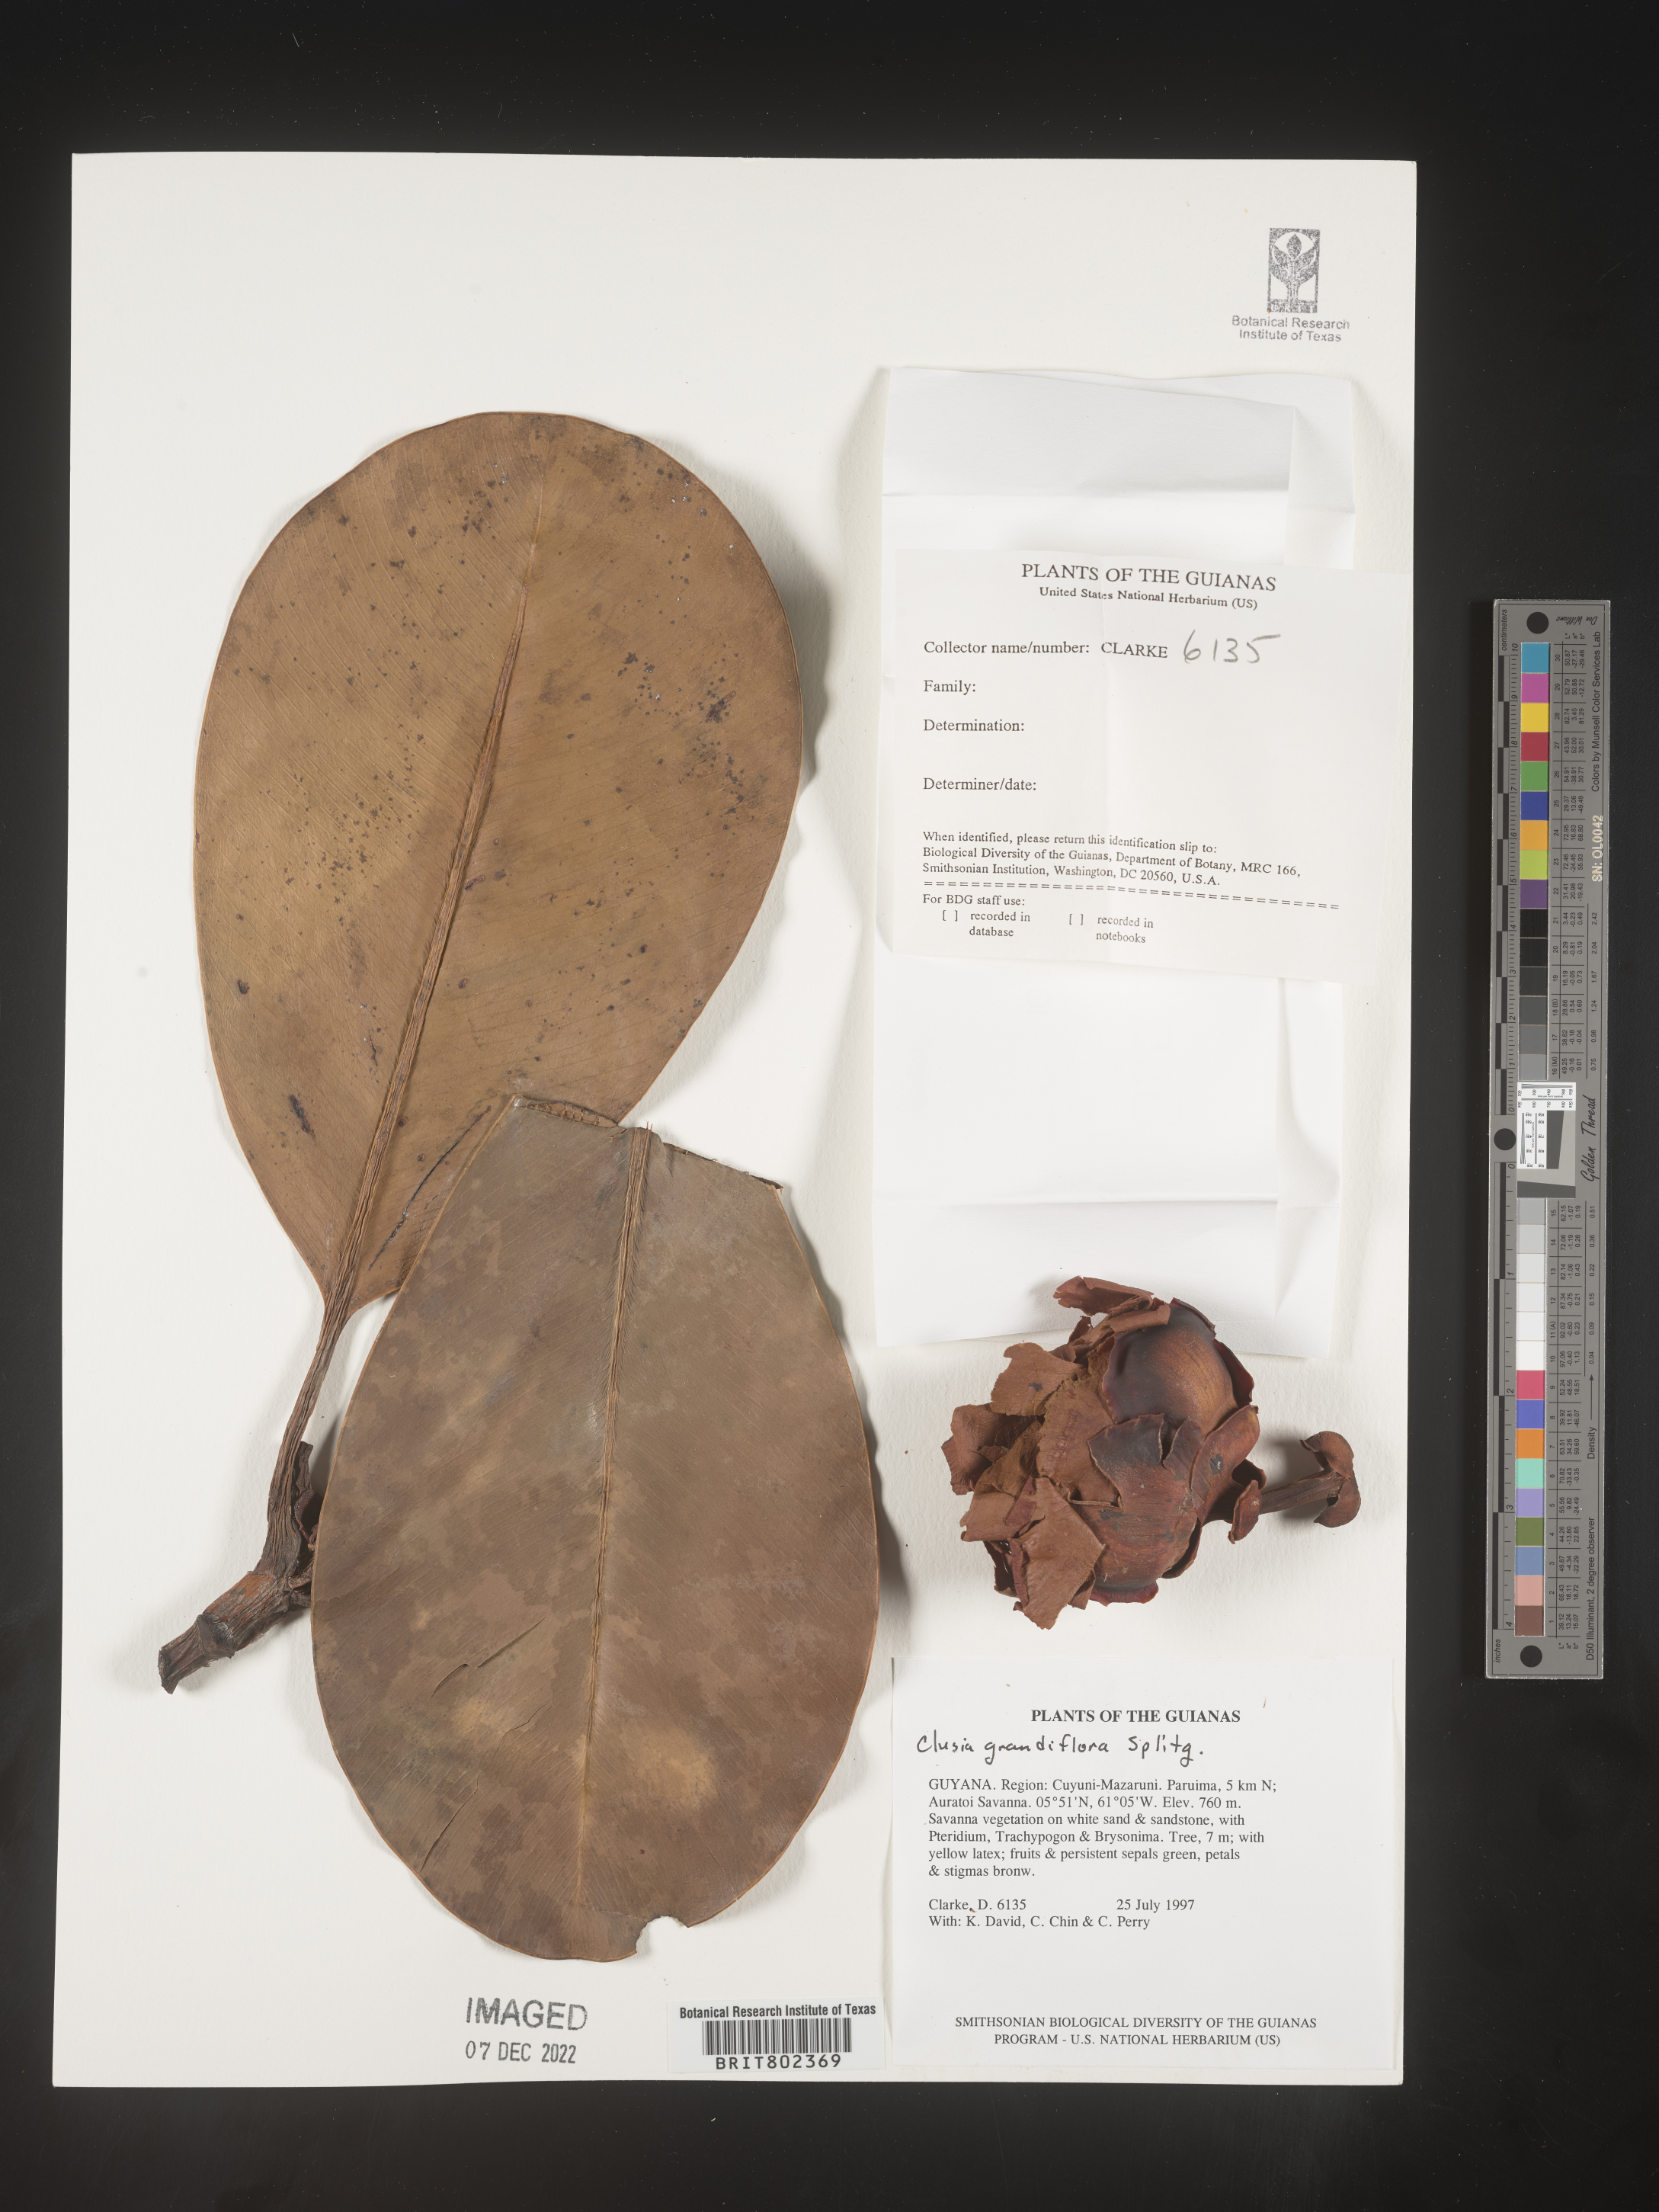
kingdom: Plantae
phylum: Tracheophyta
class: Magnoliopsida
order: Malpighiales
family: Clusiaceae
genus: Clusia
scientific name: Clusia grandiflora
